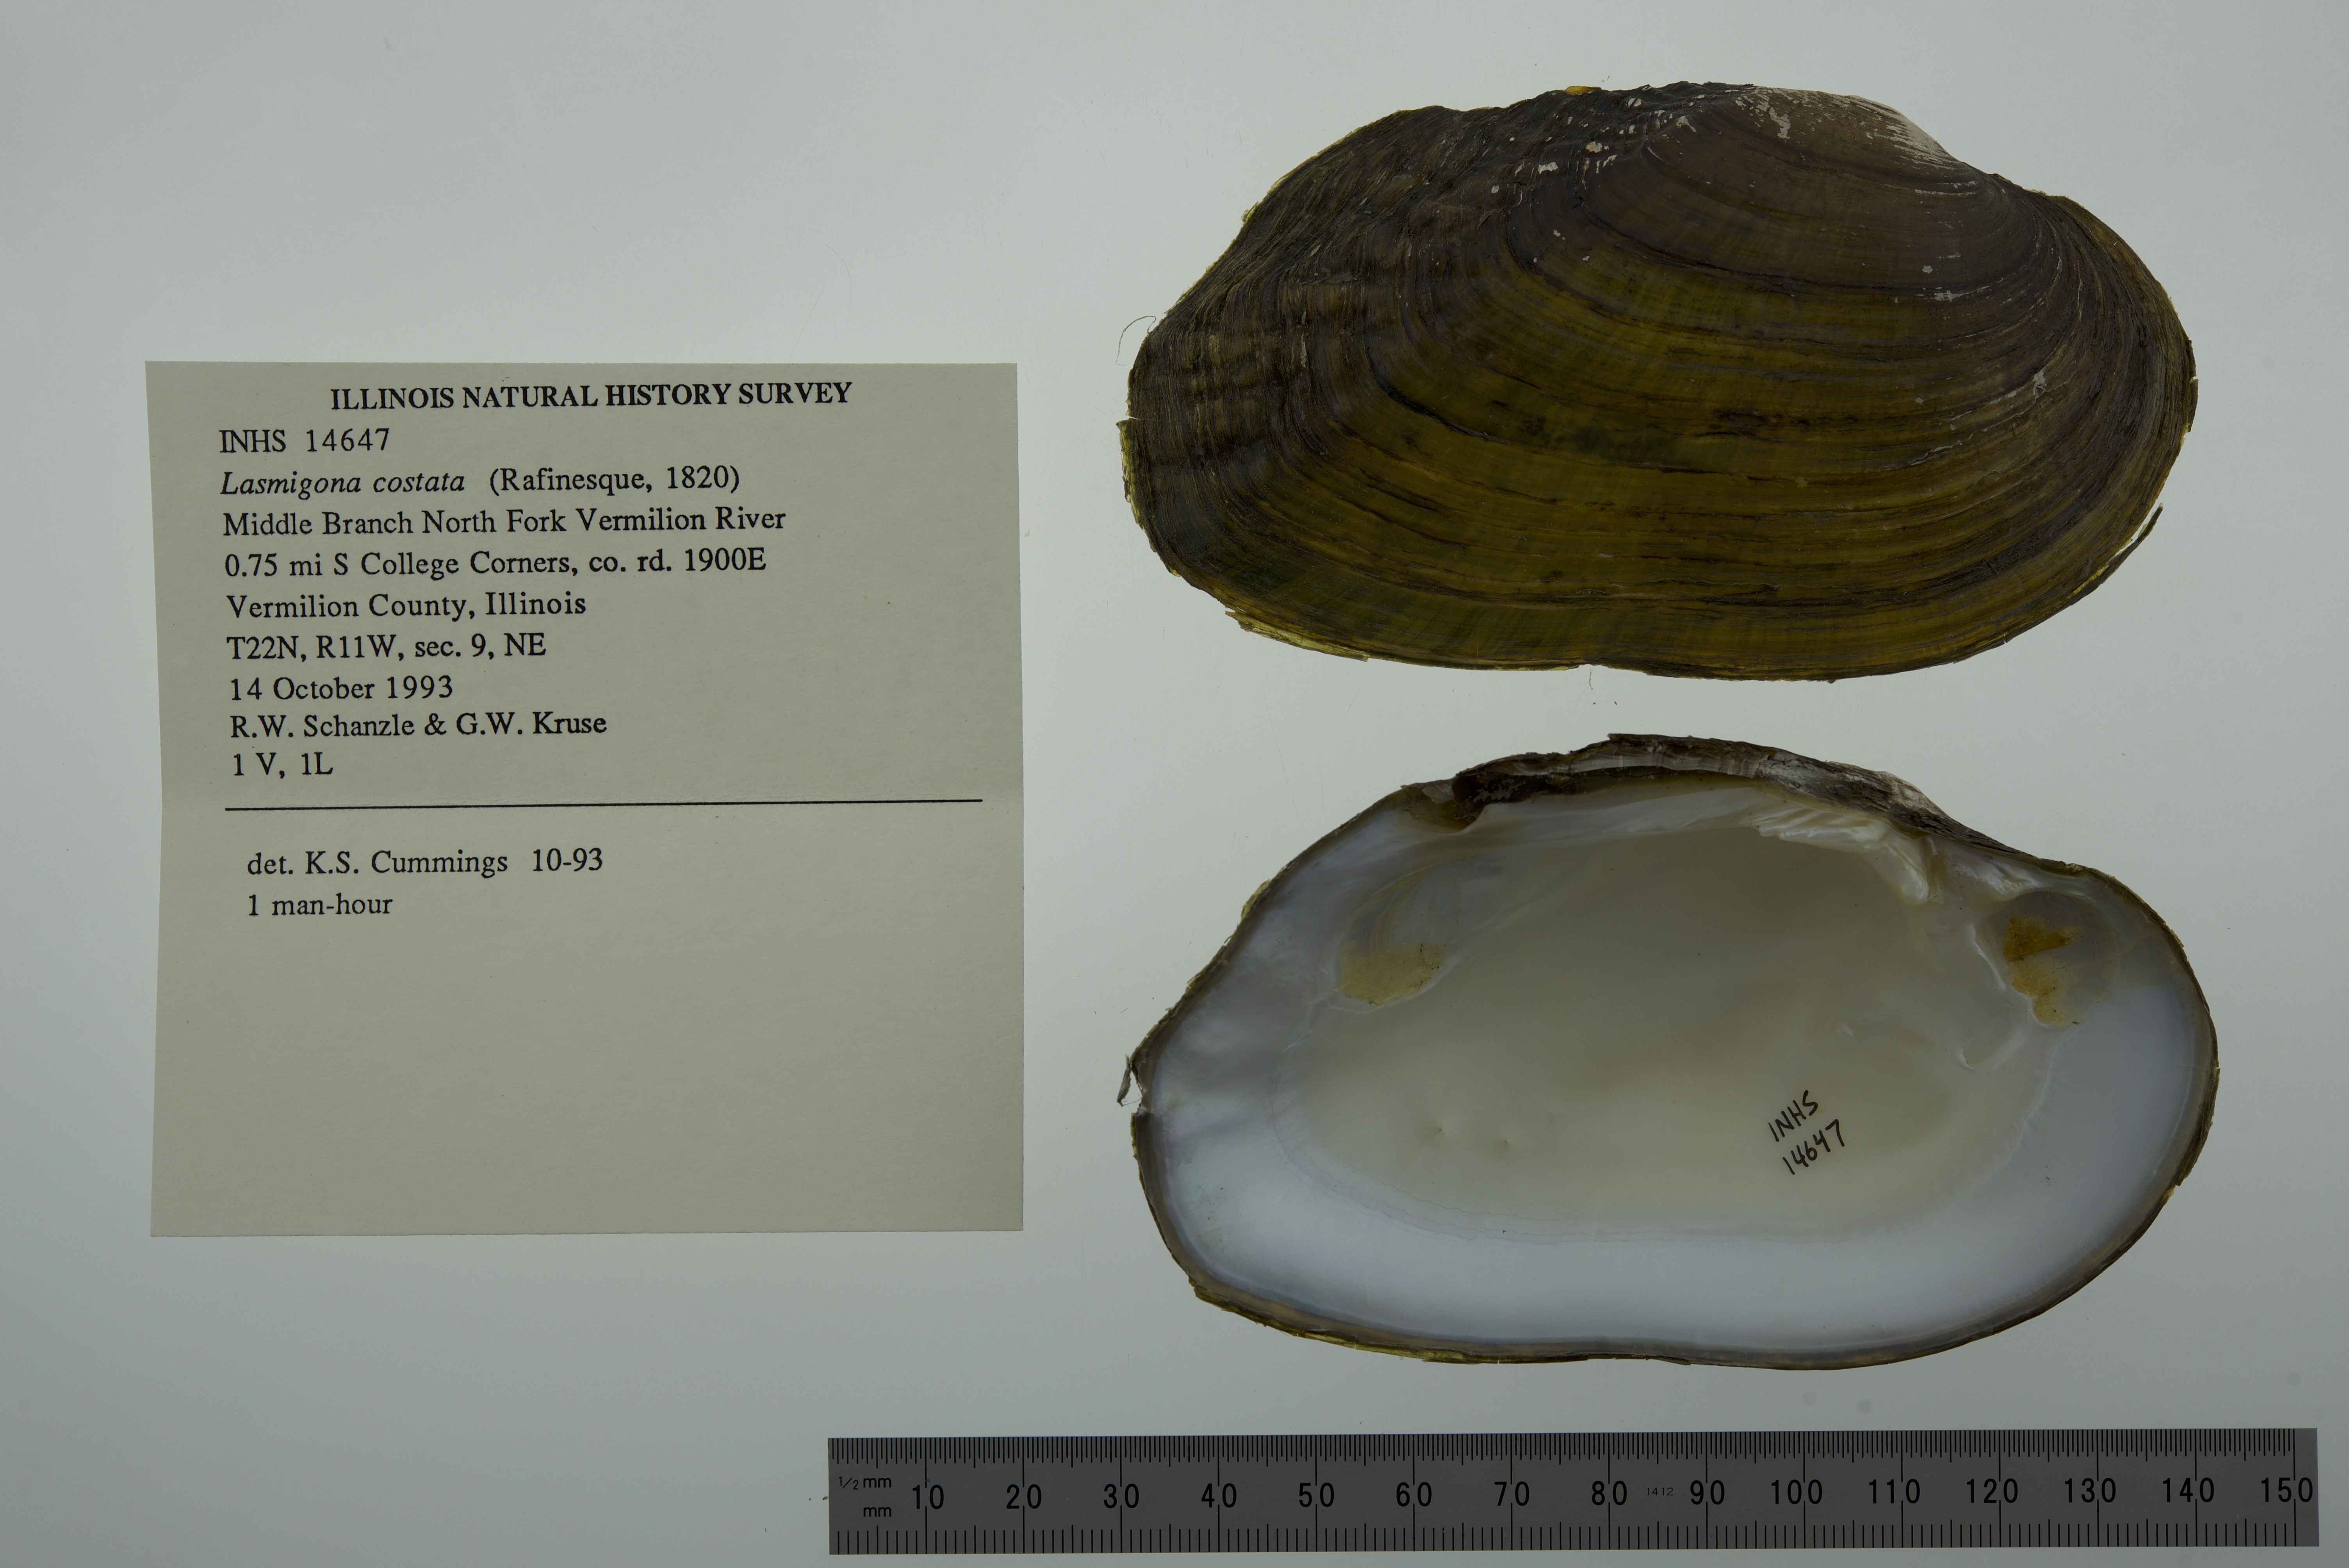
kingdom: Animalia
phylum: Mollusca
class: Bivalvia
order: Unionida
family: Unionidae
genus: Lasmigona
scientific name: Lasmigona costata
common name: Flutedshell
